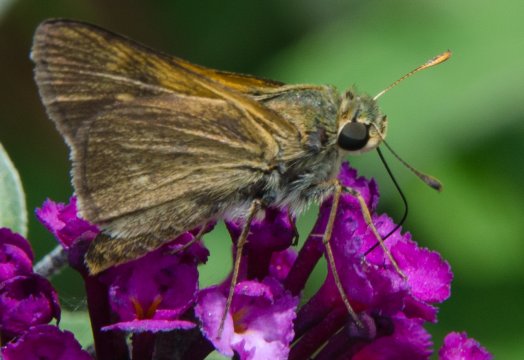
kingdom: Animalia
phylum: Arthropoda
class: Insecta
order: Lepidoptera
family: Hesperiidae
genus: Polites
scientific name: Polites
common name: Crossline Skipper
